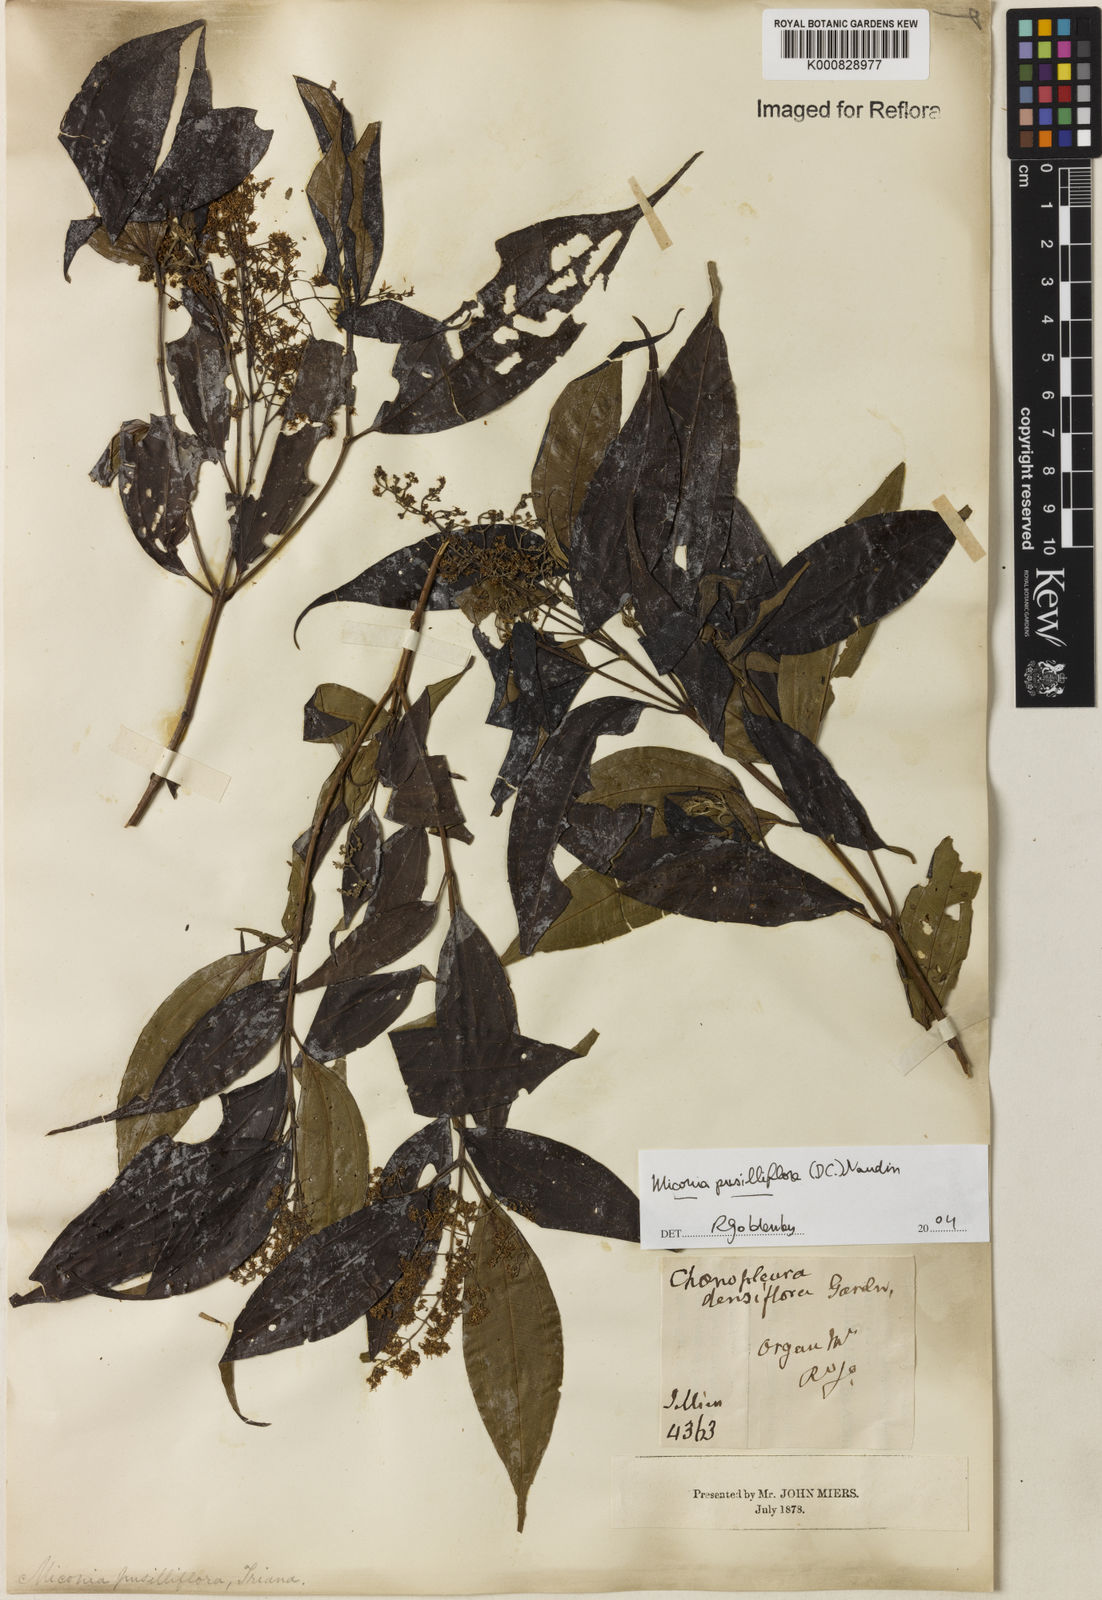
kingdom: Plantae
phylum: Tracheophyta
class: Magnoliopsida
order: Myrtales
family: Melastomataceae
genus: Miconia
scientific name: Miconia pusilliflora
